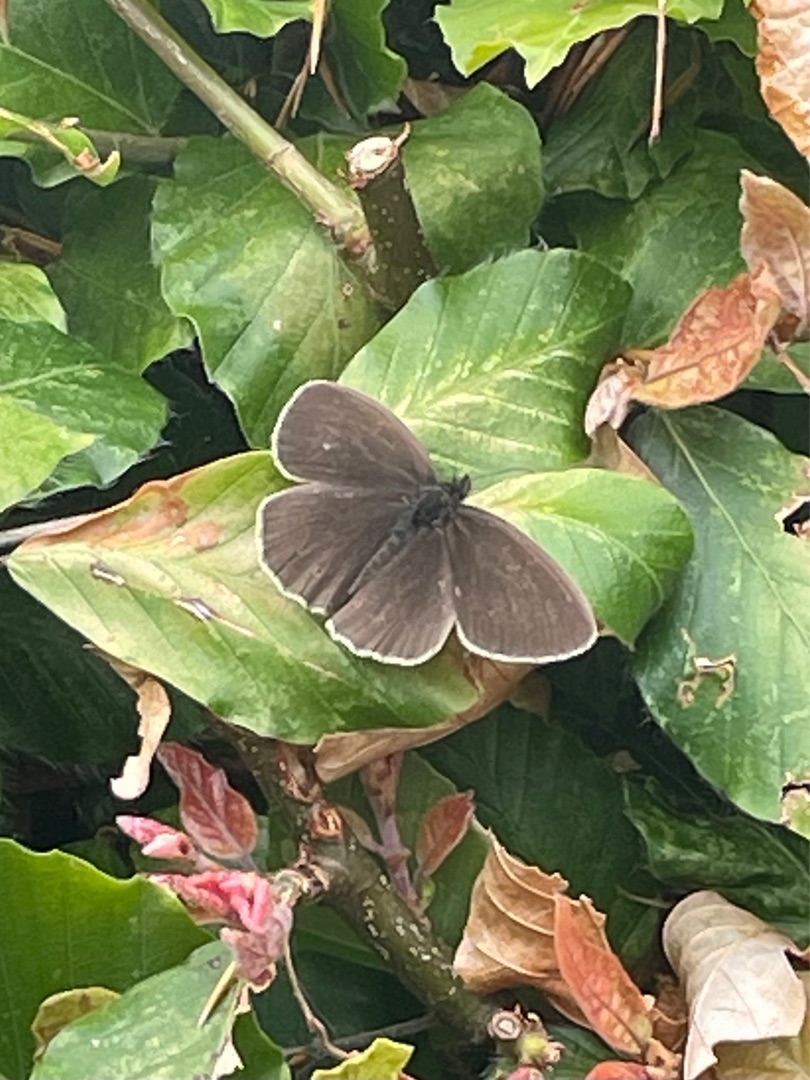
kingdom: Animalia
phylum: Arthropoda
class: Insecta
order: Lepidoptera
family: Nymphalidae
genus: Aphantopus
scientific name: Aphantopus hyperantus
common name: Engrandøje
